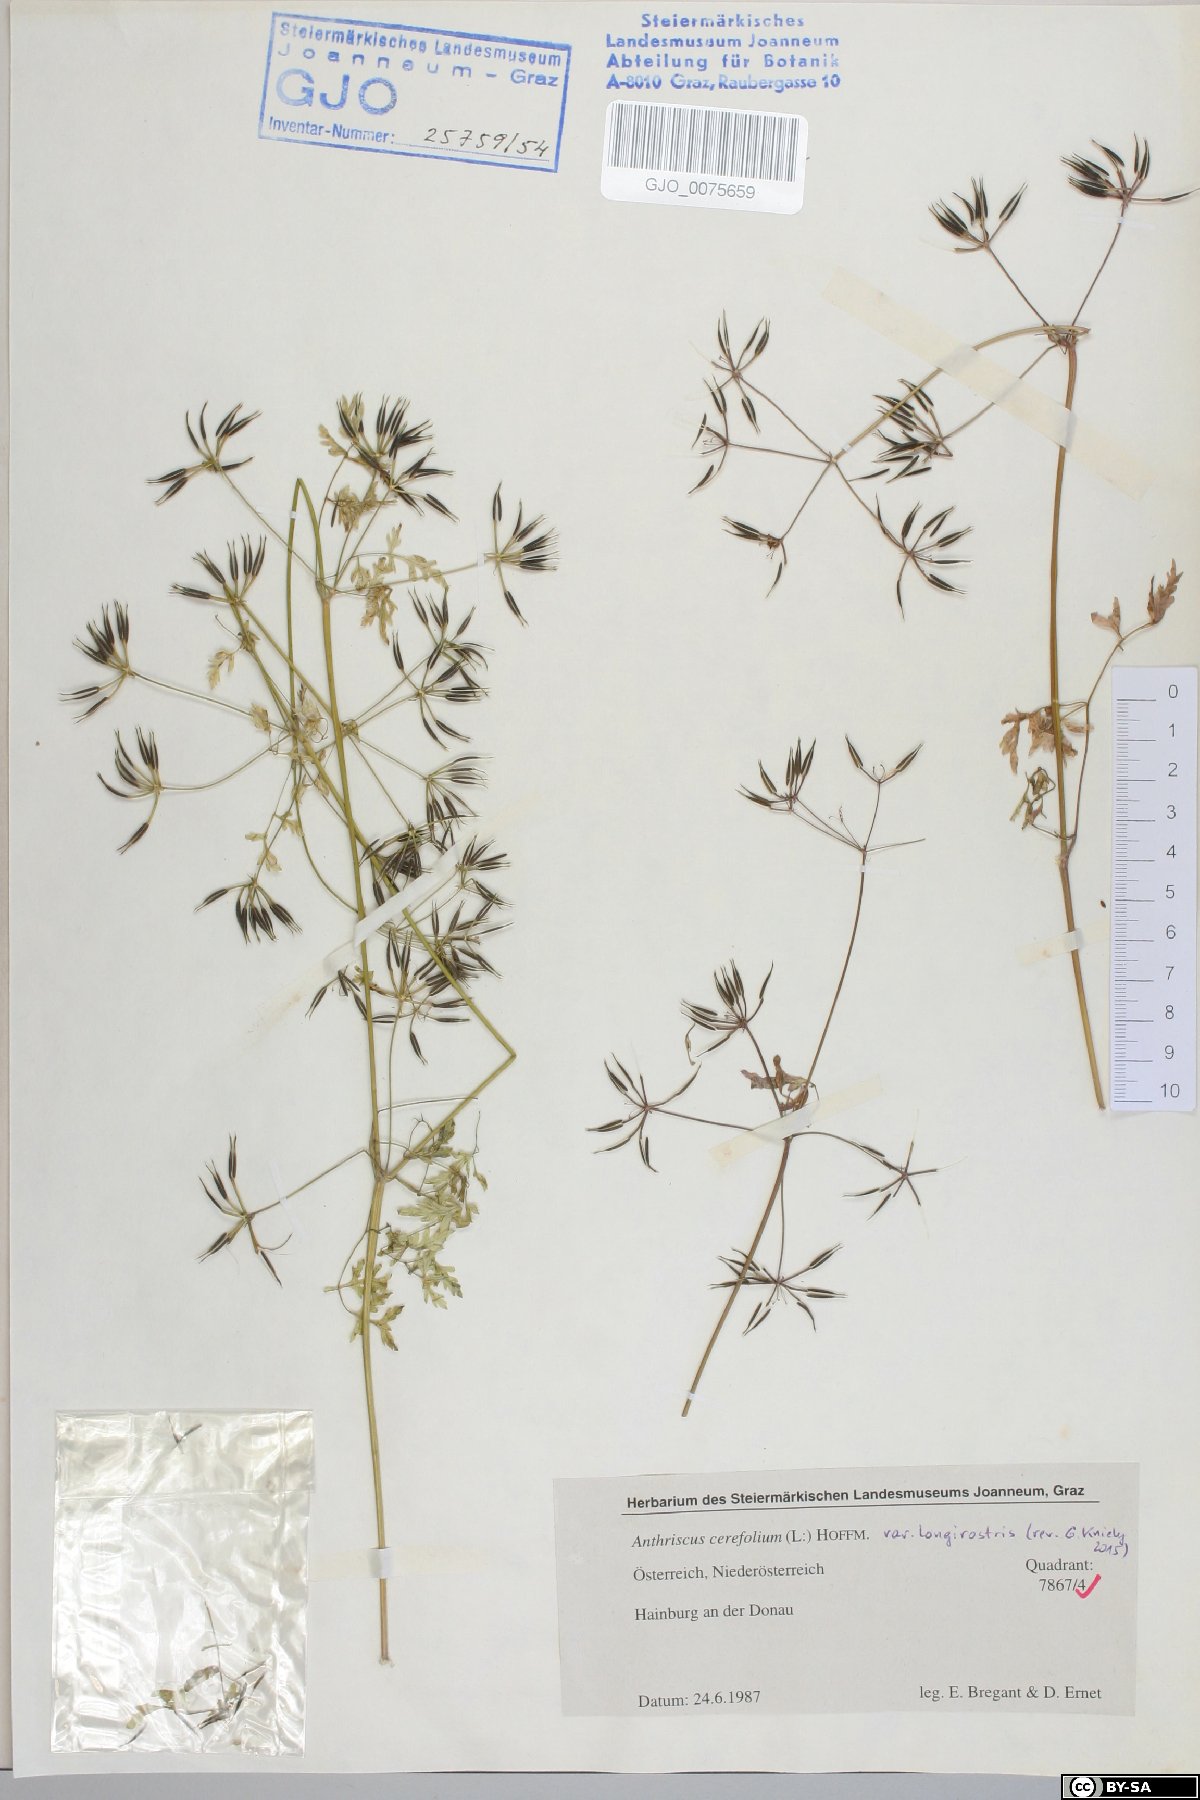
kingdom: Plantae
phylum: Tracheophyta
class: Magnoliopsida
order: Apiales
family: Apiaceae
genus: Anthriscus
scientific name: Anthriscus cerefolium
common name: Garden chervil
